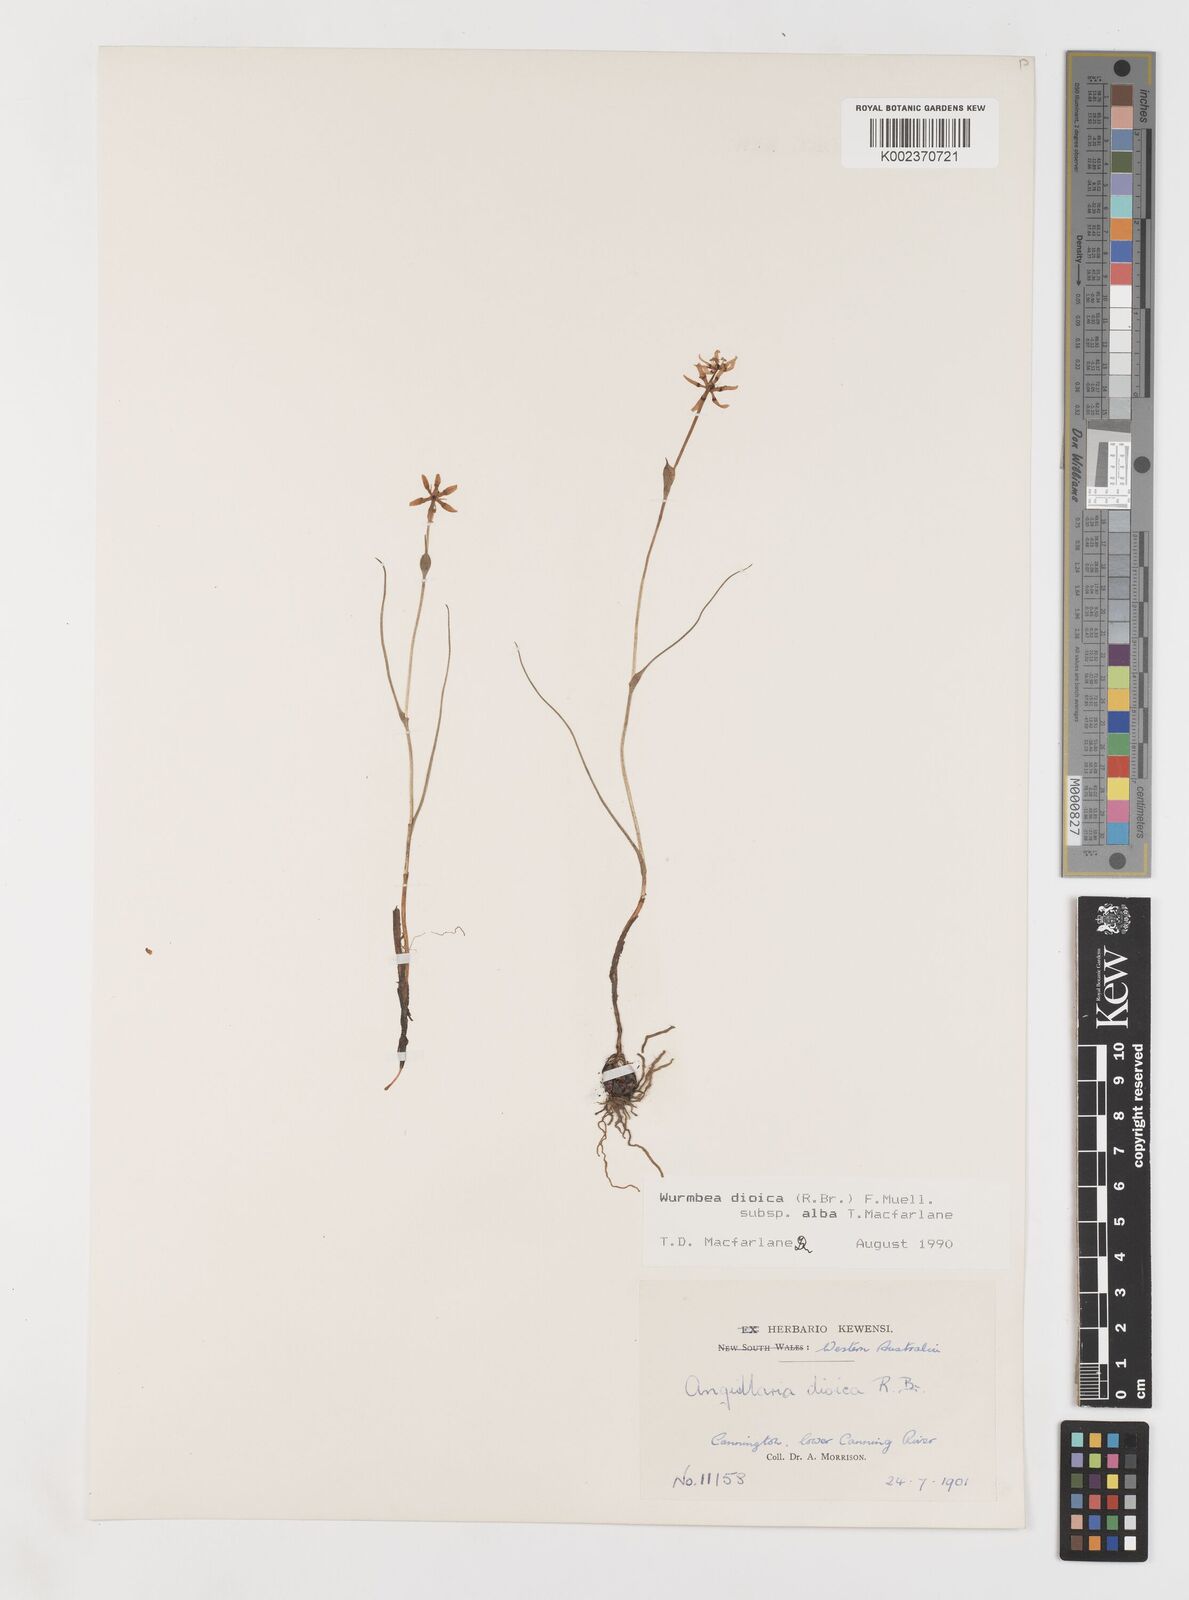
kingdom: Plantae
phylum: Tracheophyta
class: Liliopsida
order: Liliales
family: Colchicaceae
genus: Wurmbea
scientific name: Wurmbea dioica
